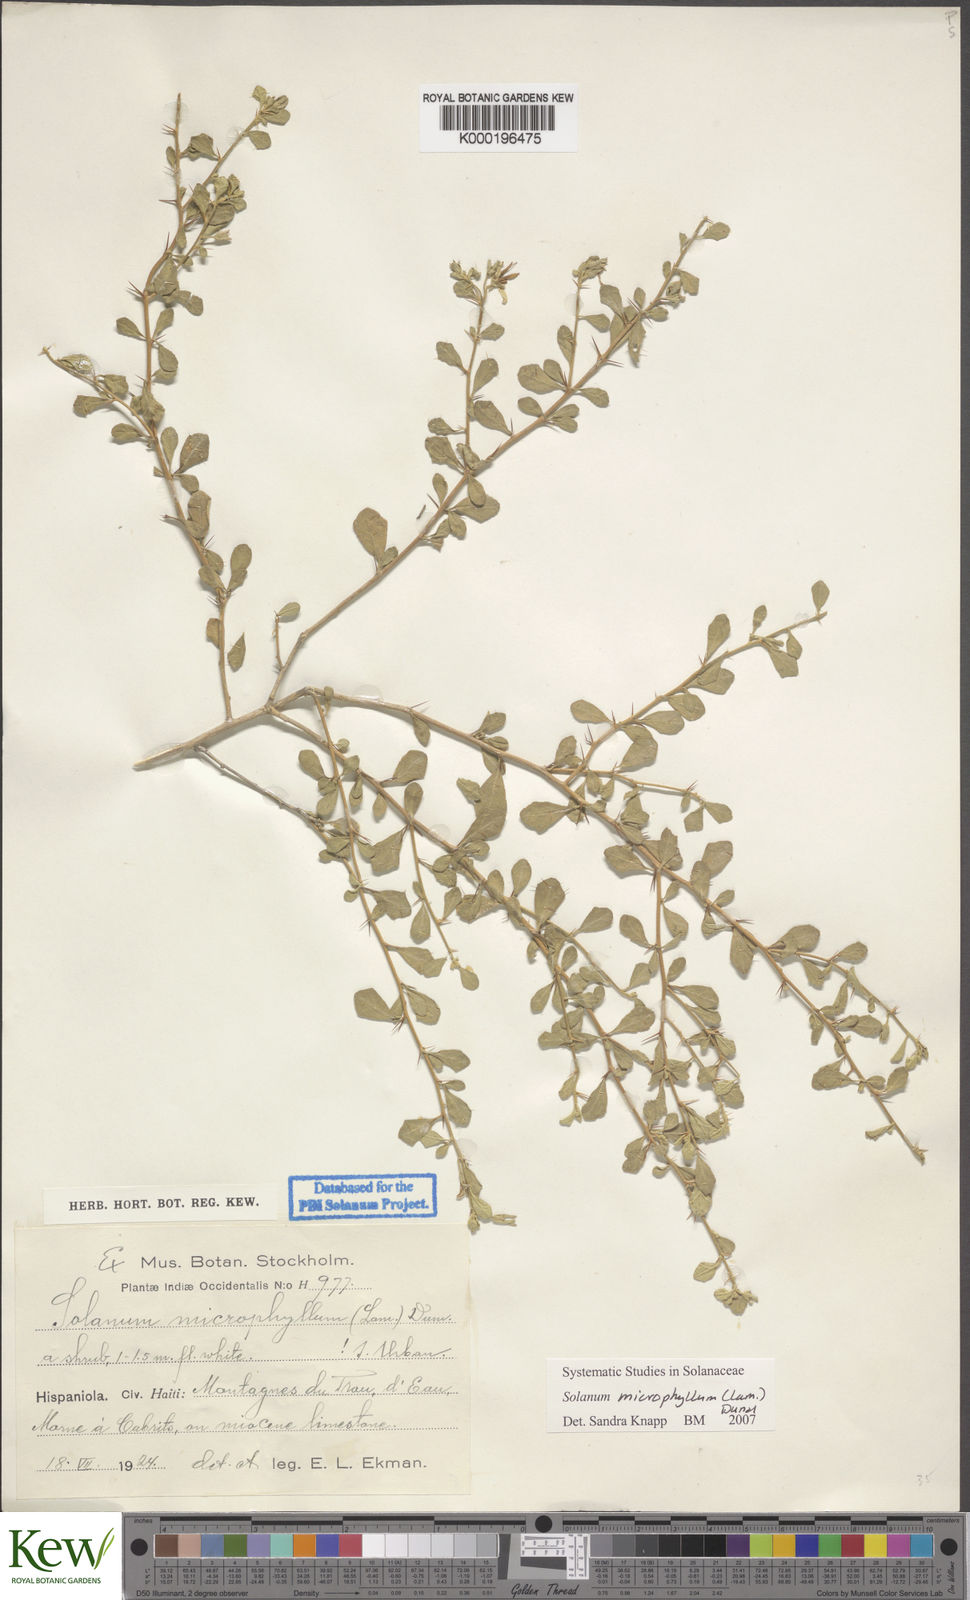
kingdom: Plantae
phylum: Tracheophyta
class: Magnoliopsida
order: Solanales
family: Solanaceae
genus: Solanum
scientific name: Solanum
